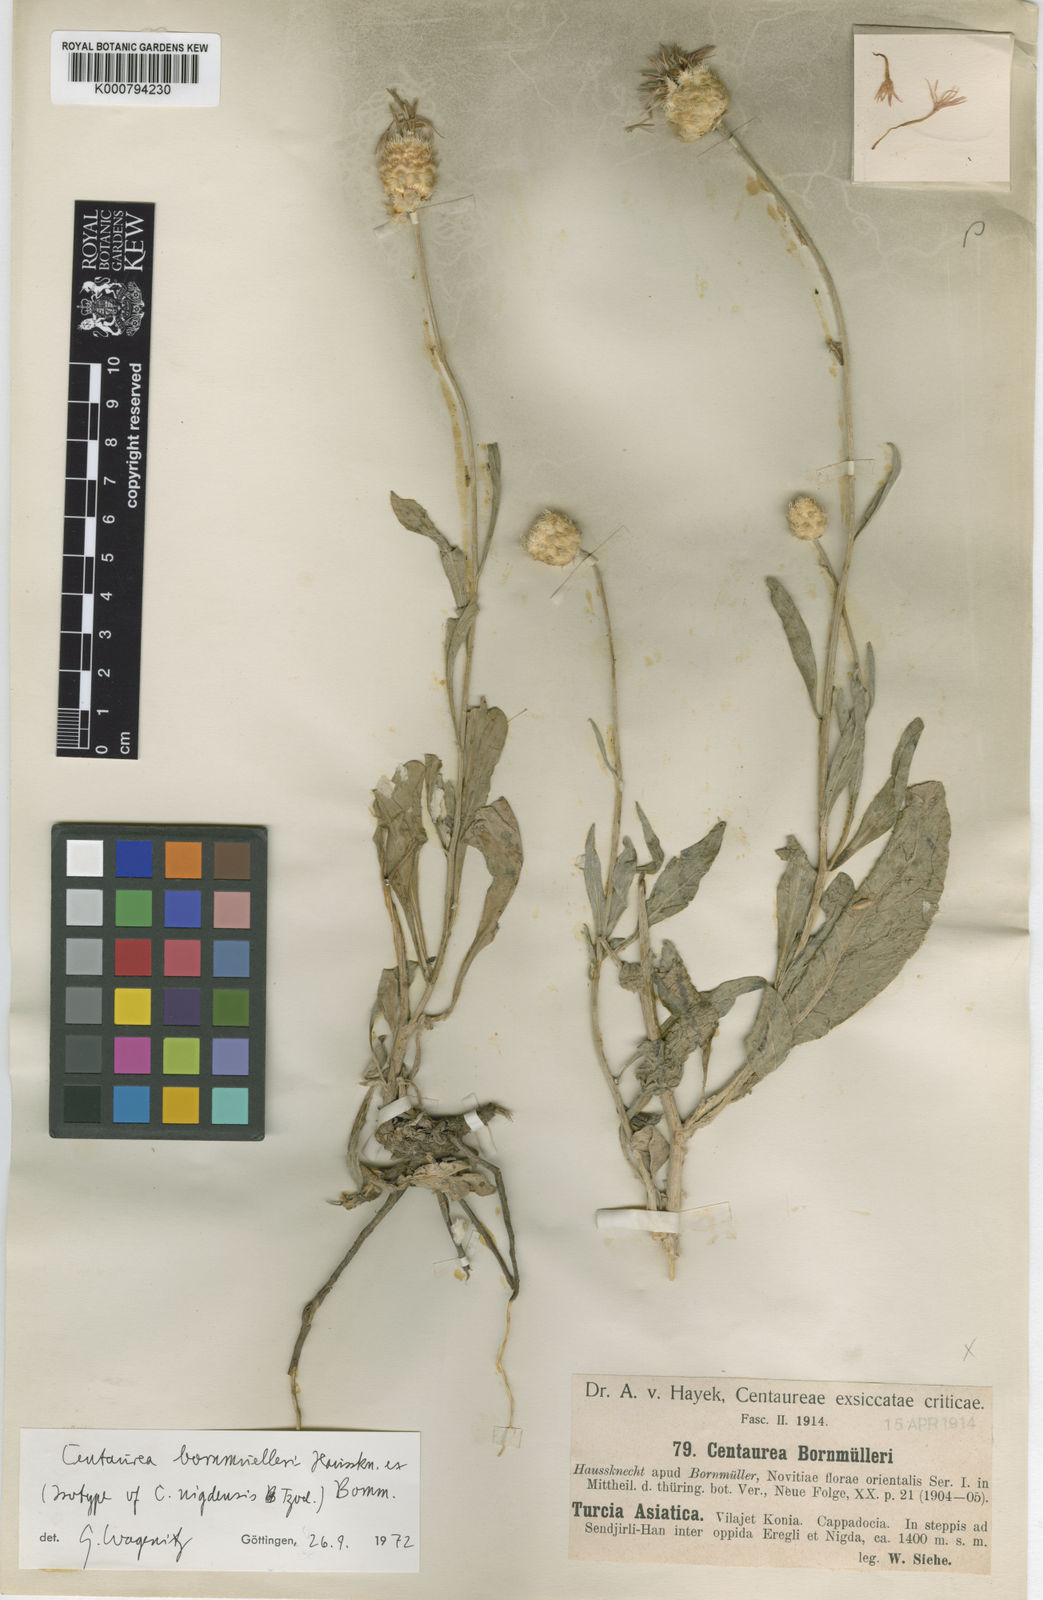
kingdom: Plantae
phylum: Tracheophyta
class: Magnoliopsida
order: Asterales
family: Asteraceae
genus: Psephellus
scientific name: Psephellus bornmuelleri
